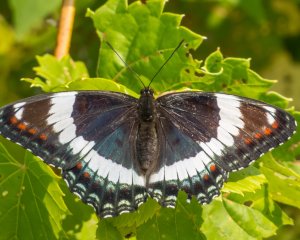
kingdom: Animalia
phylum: Arthropoda
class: Insecta
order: Lepidoptera
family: Nymphalidae
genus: Limenitis
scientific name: Limenitis arthemis
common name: Red-spotted Admiral
